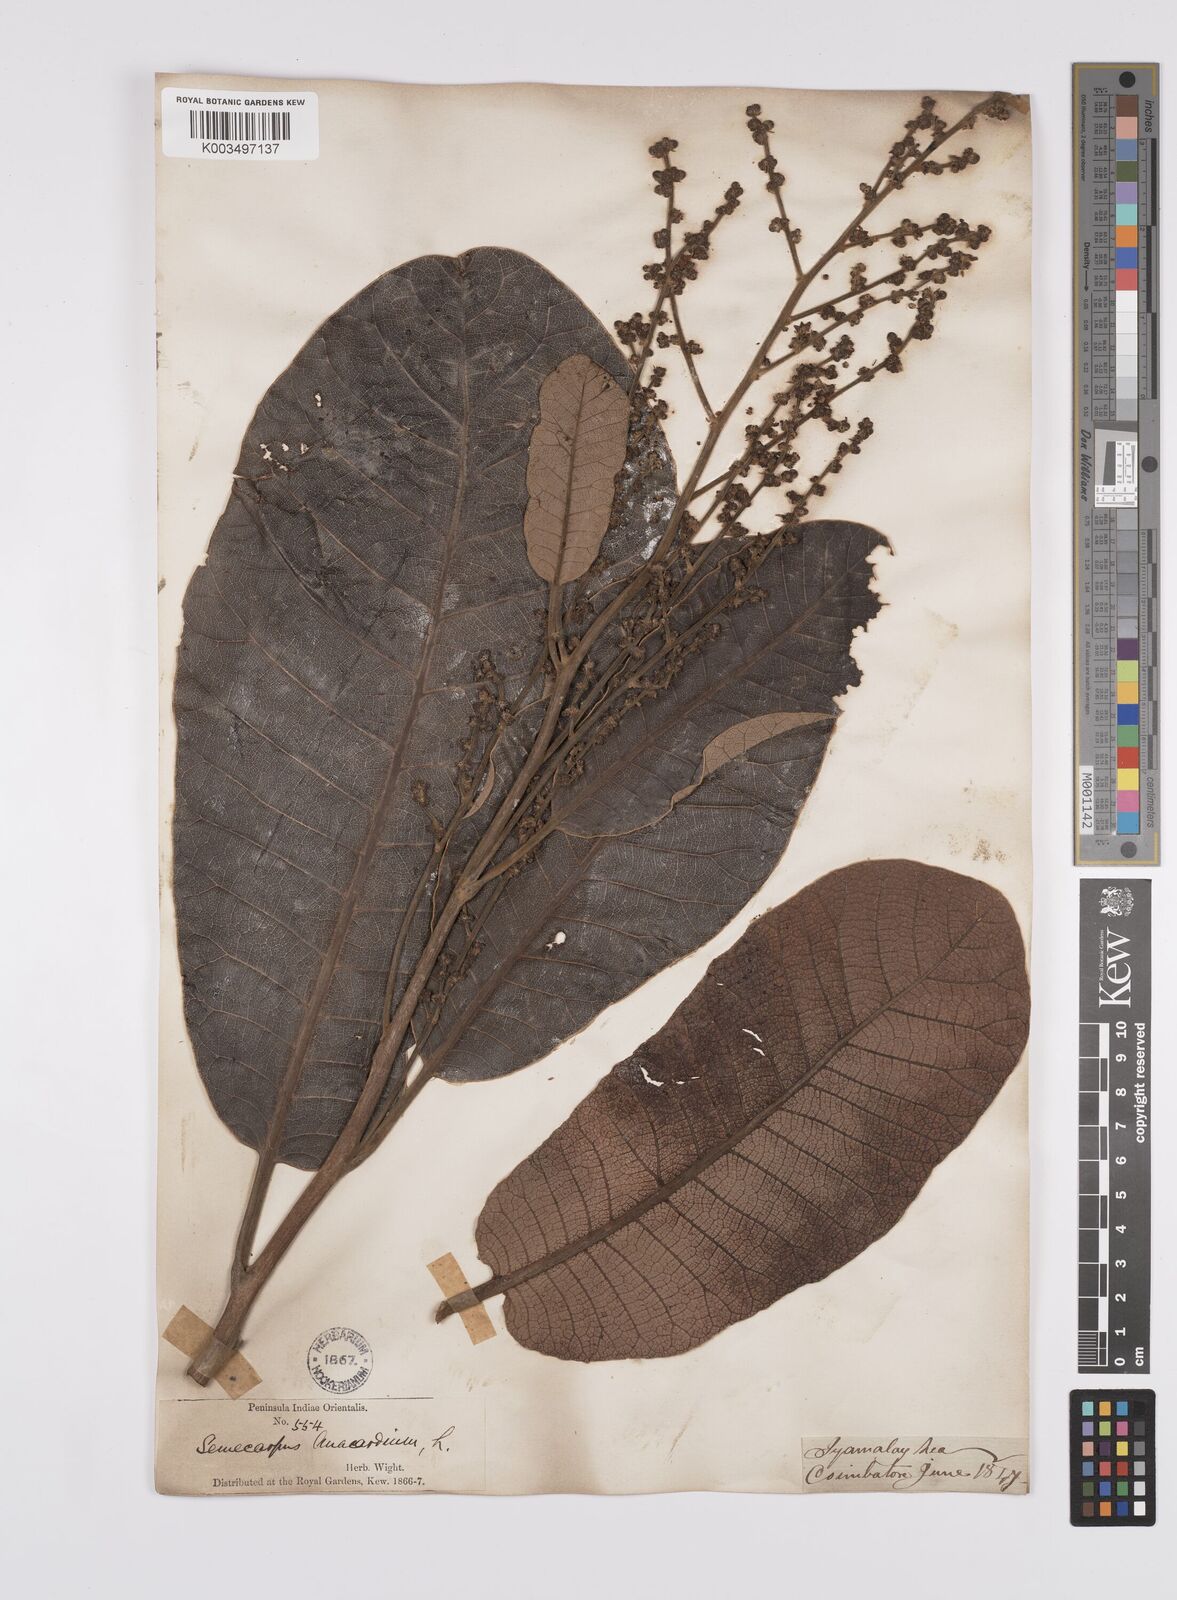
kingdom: Plantae
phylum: Tracheophyta
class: Magnoliopsida
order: Sapindales
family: Anacardiaceae
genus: Semecarpus
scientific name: Semecarpus anacardium
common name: Marking nut-tree
